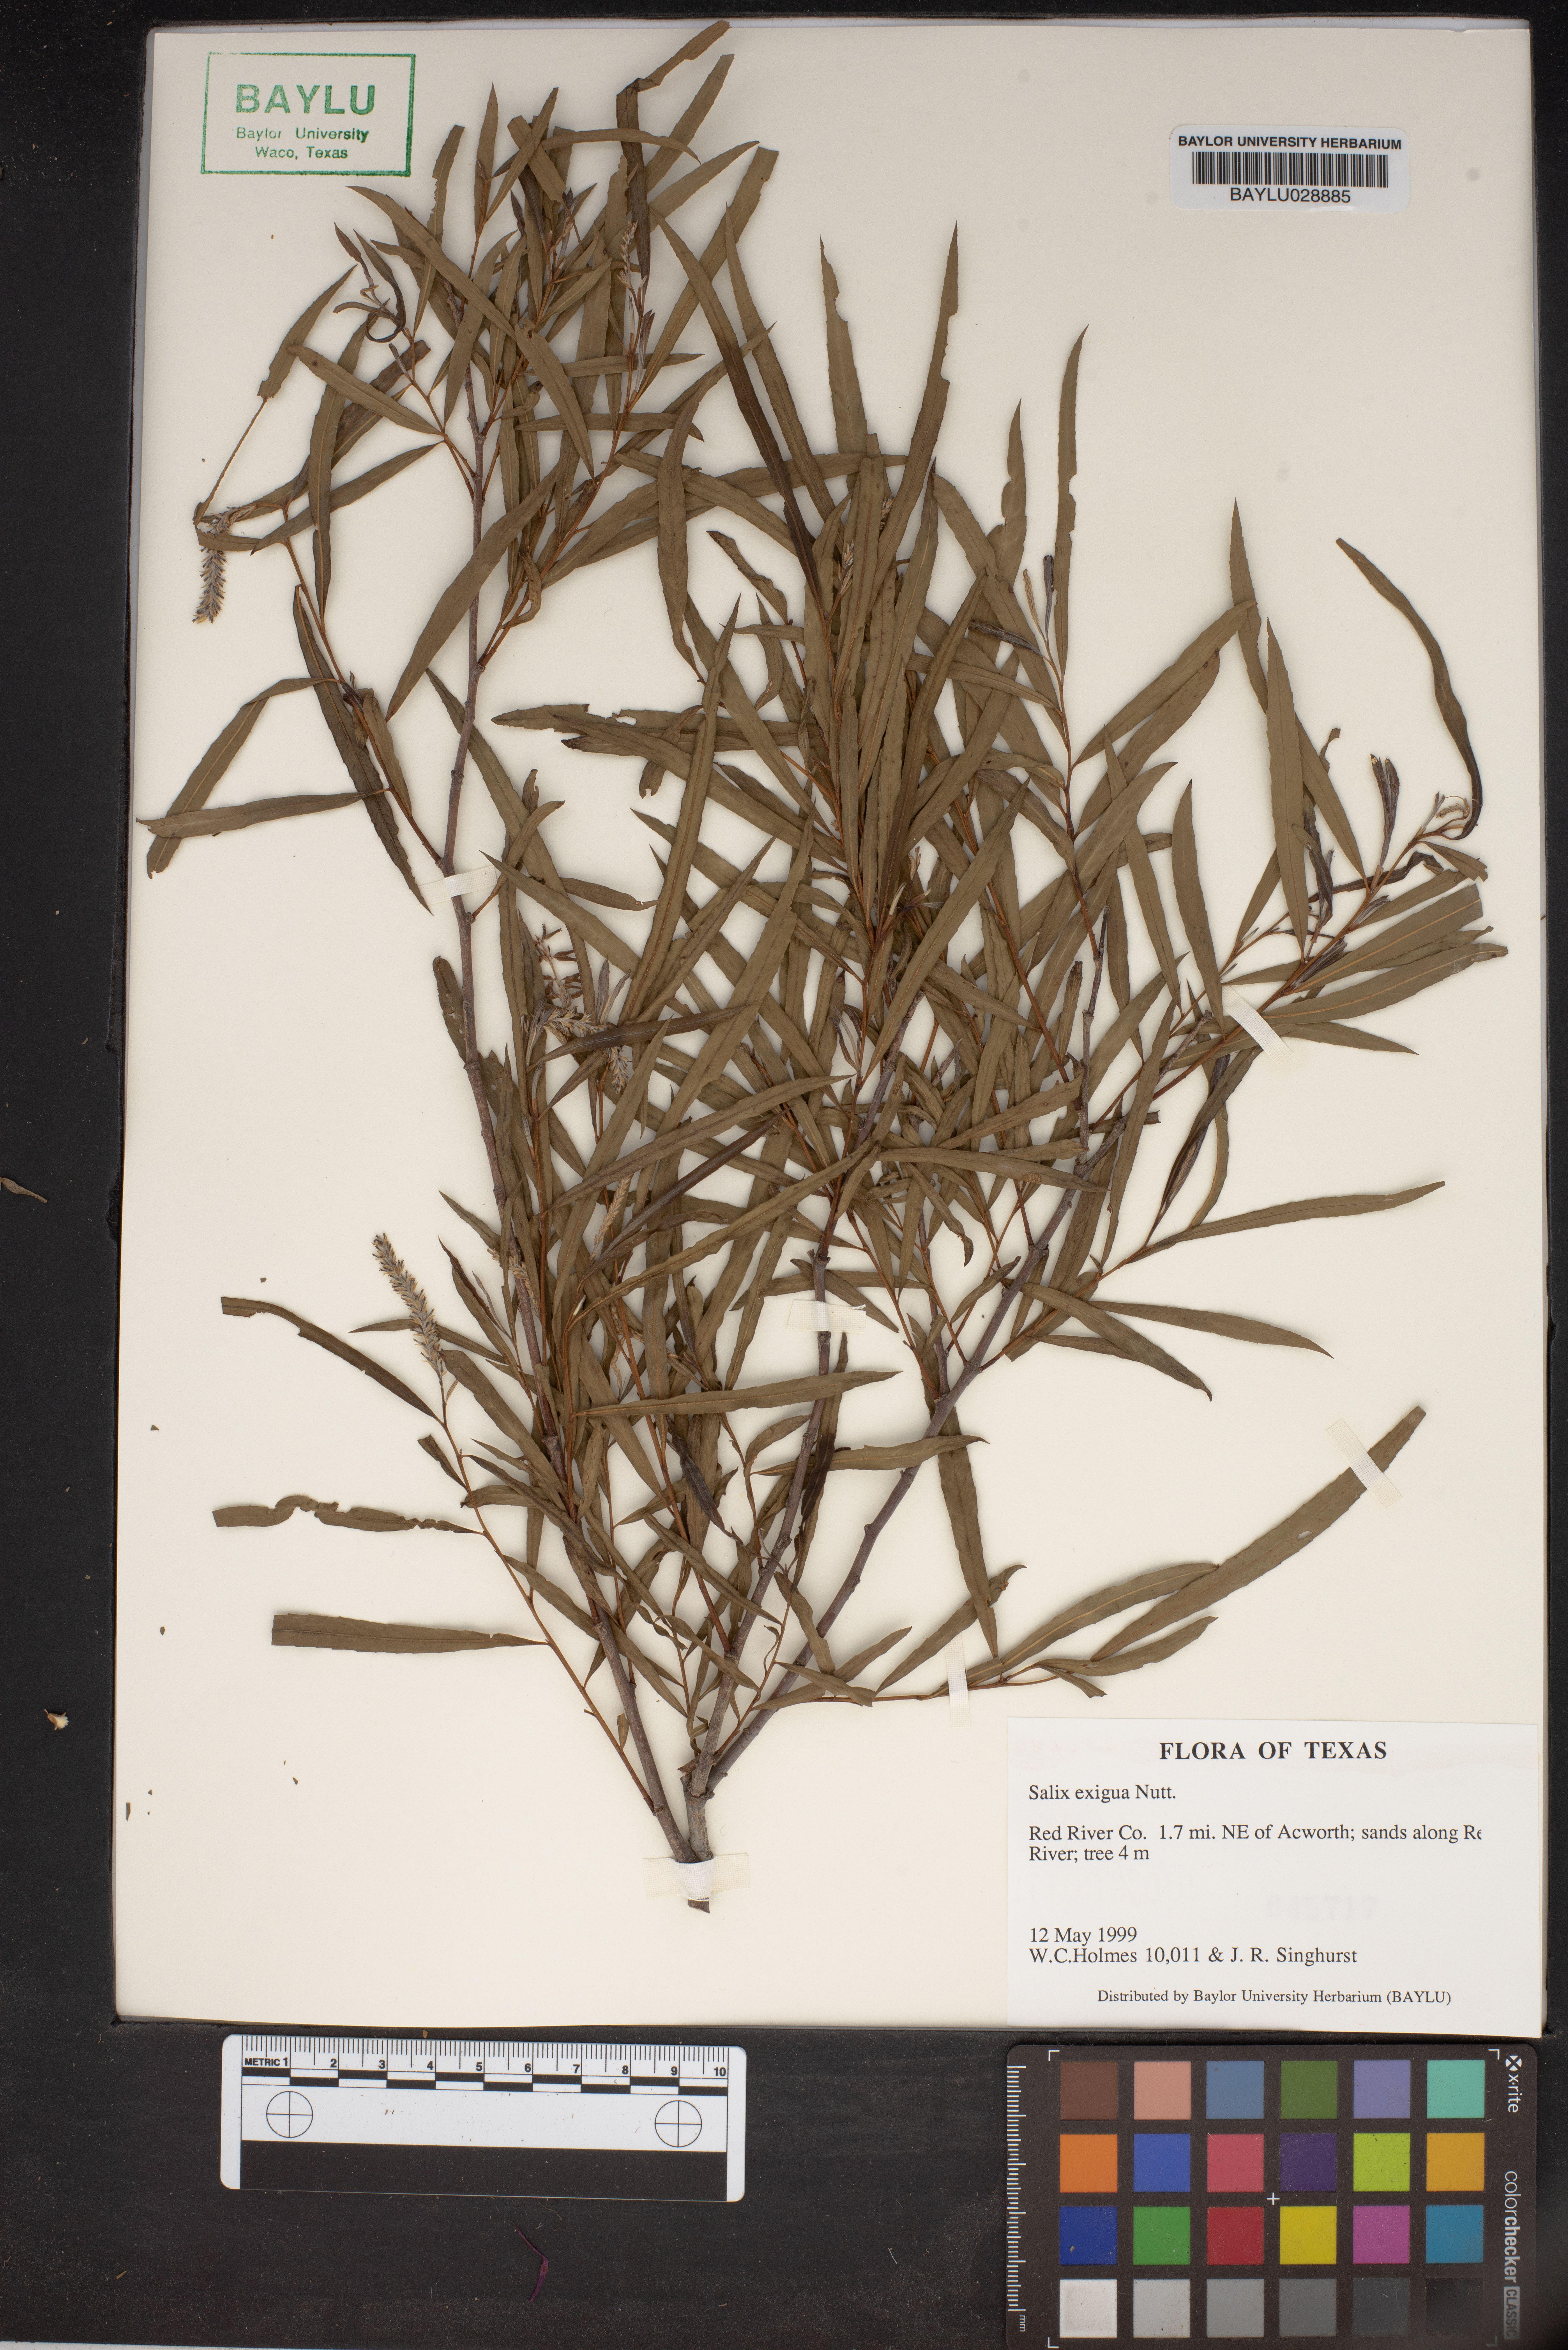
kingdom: Plantae
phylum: Tracheophyta
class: Magnoliopsida
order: Malpighiales
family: Salicaceae
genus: Salix
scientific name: Salix exigua
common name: Coyote willow
